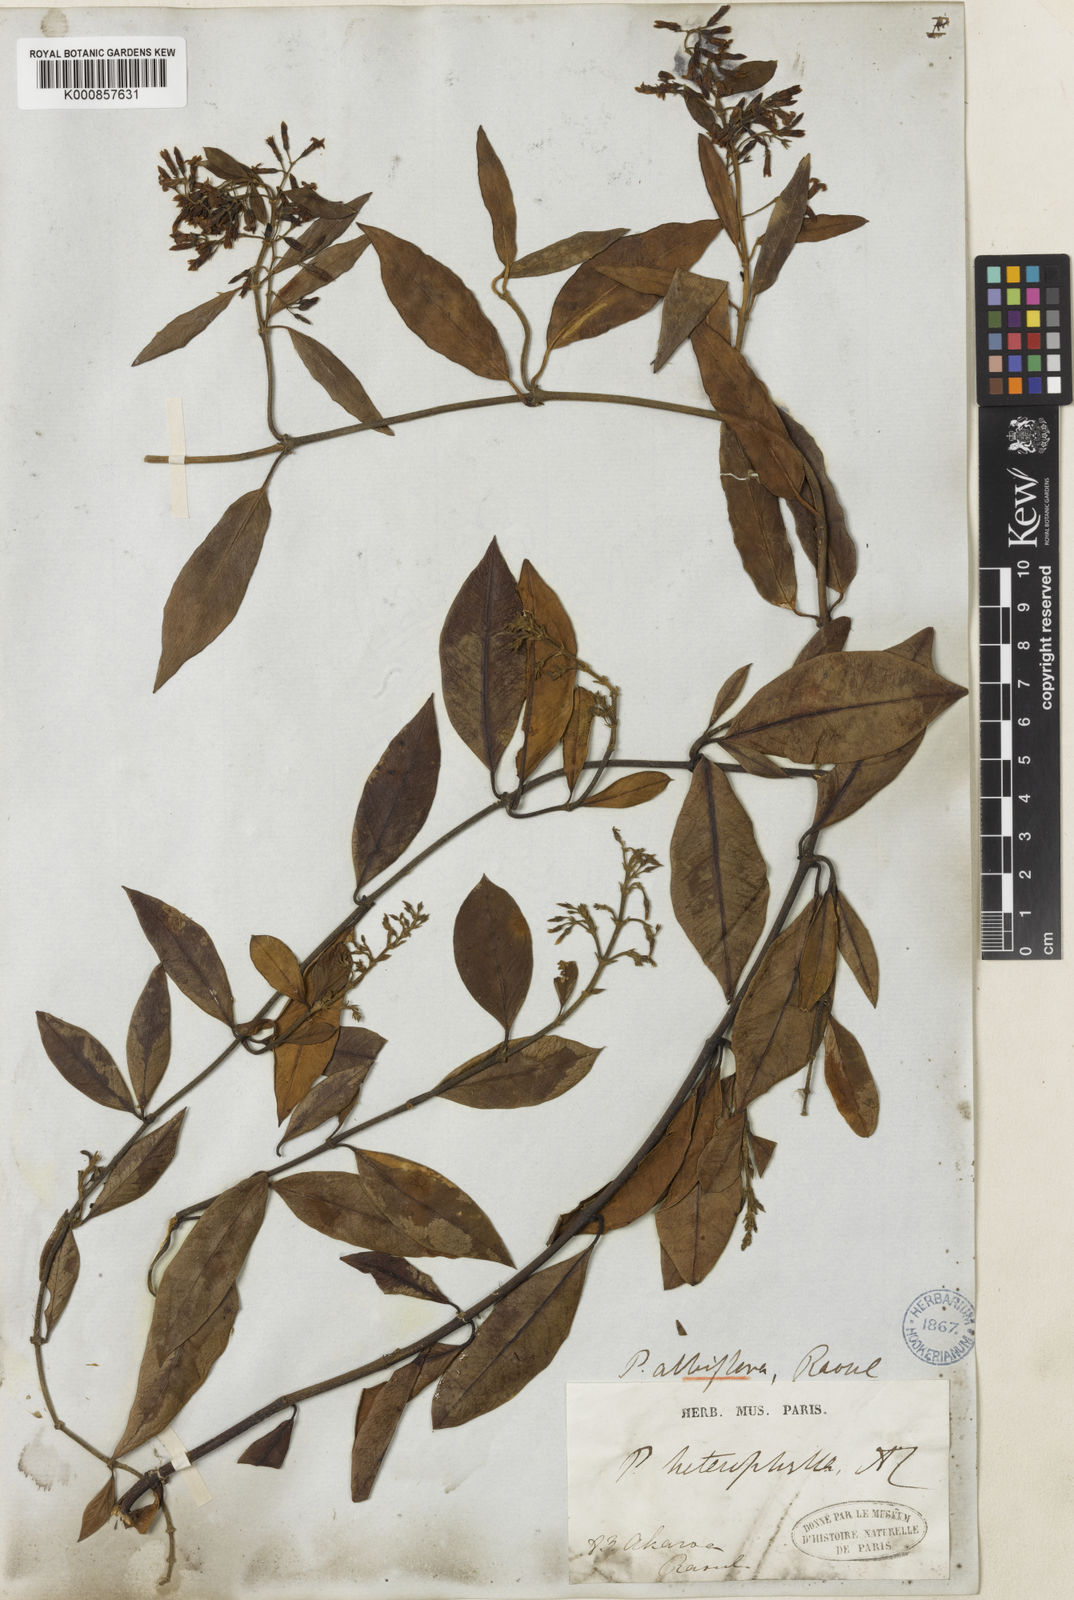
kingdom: Plantae
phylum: Tracheophyta
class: Magnoliopsida
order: Gentianales
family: Apocynaceae
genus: Parsonsia
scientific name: Parsonsia heterophylla
